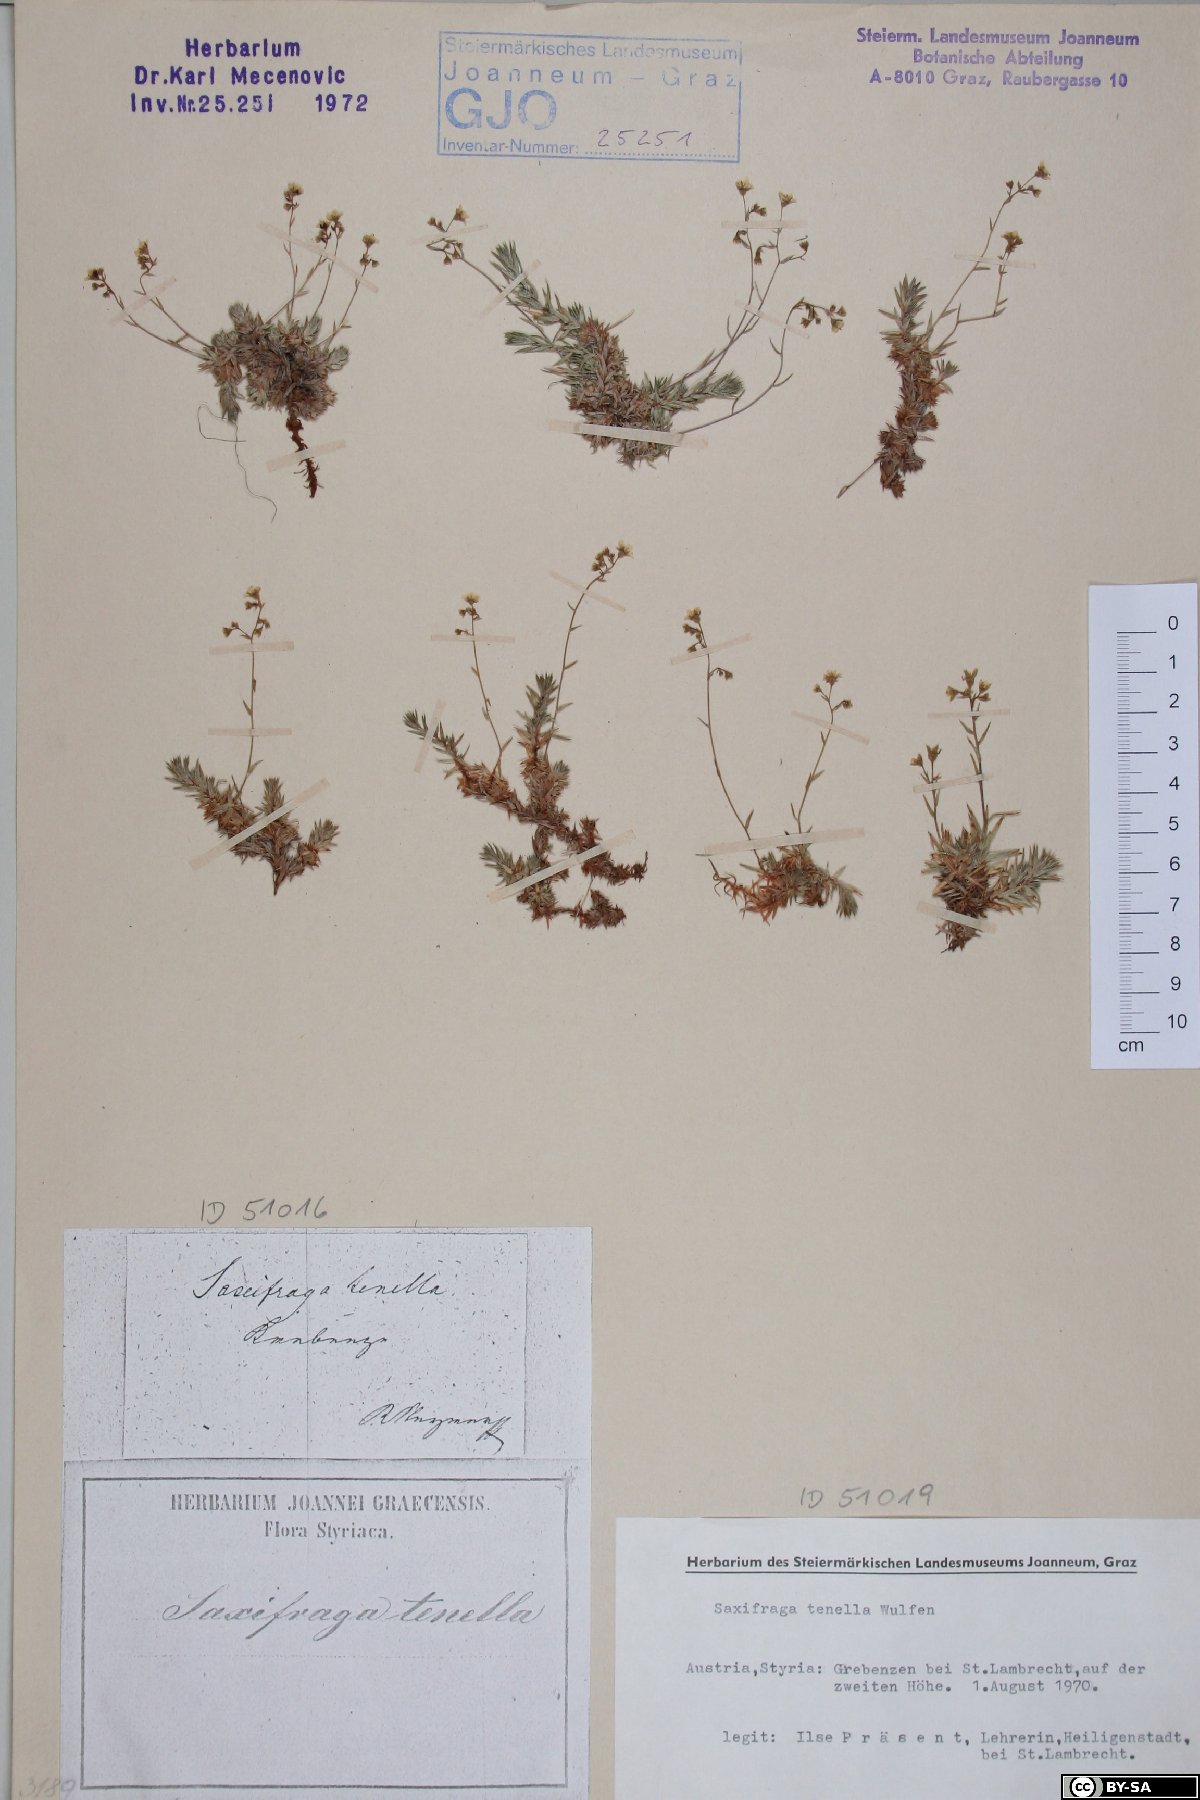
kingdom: Plantae
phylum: Tracheophyta
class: Magnoliopsida
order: Saxifragales
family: Saxifragaceae
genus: Saxifraga
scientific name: Saxifraga tenella
